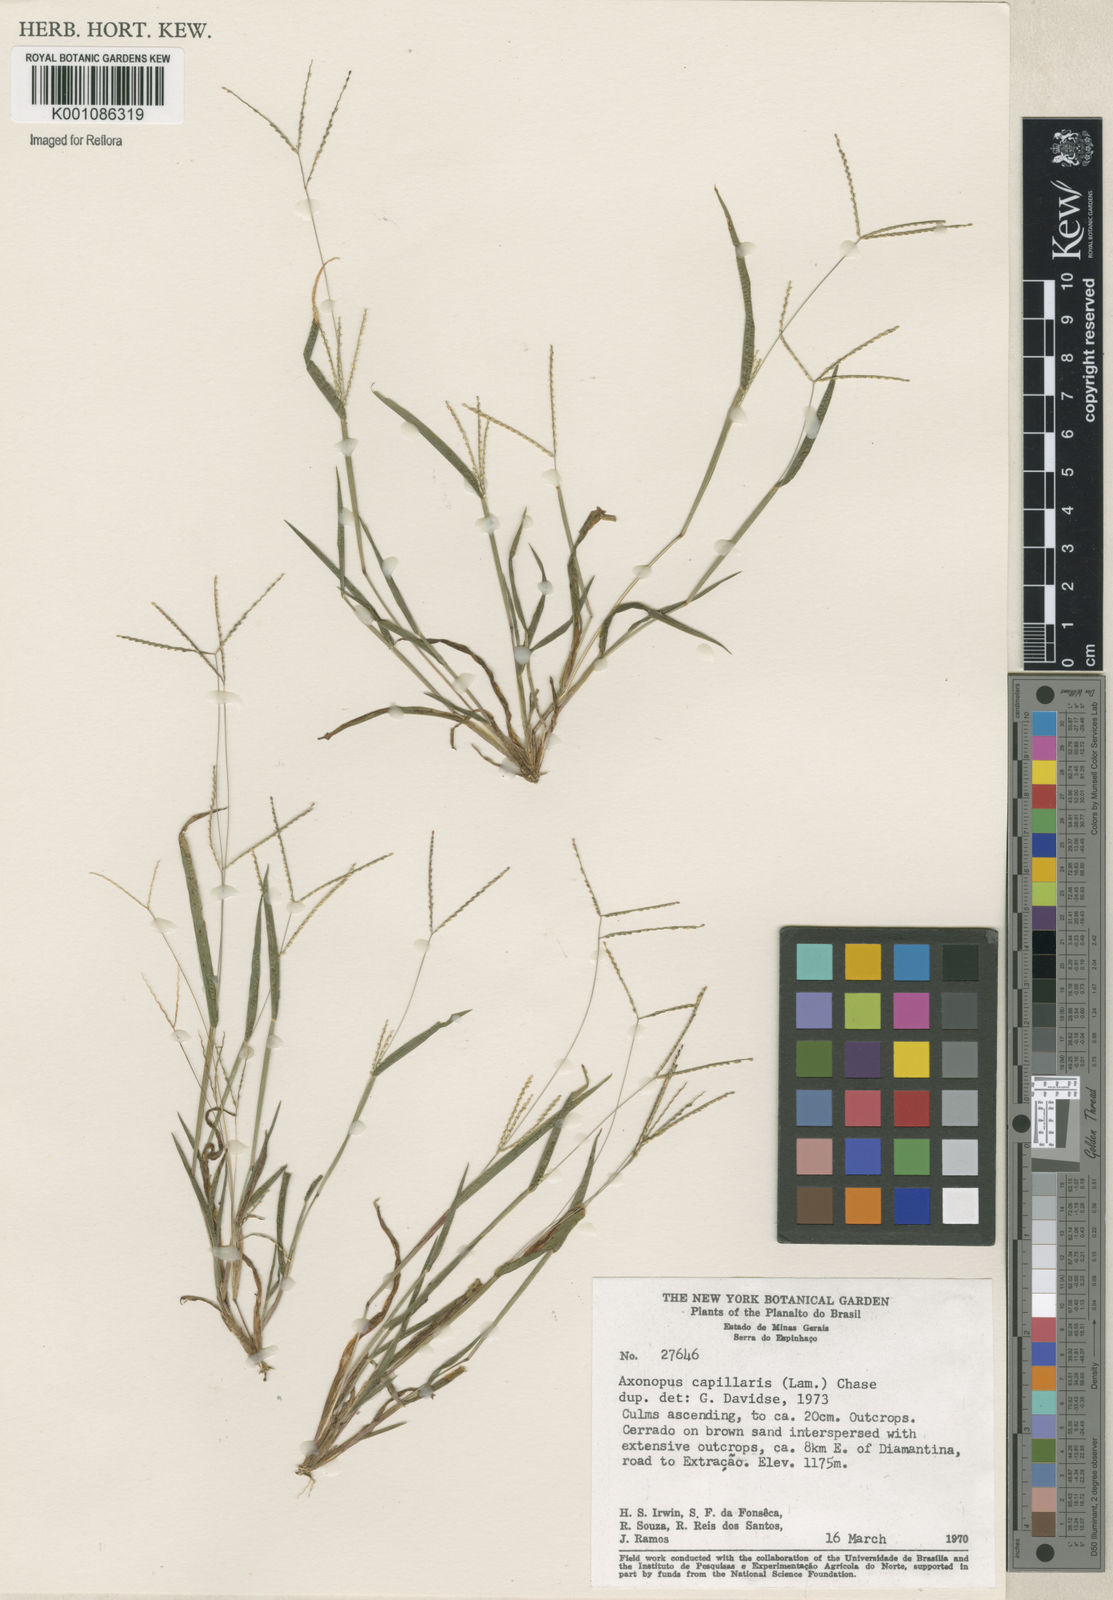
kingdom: Plantae
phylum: Tracheophyta
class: Liliopsida
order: Poales
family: Poaceae
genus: Axonopus
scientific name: Axonopus capillaris
